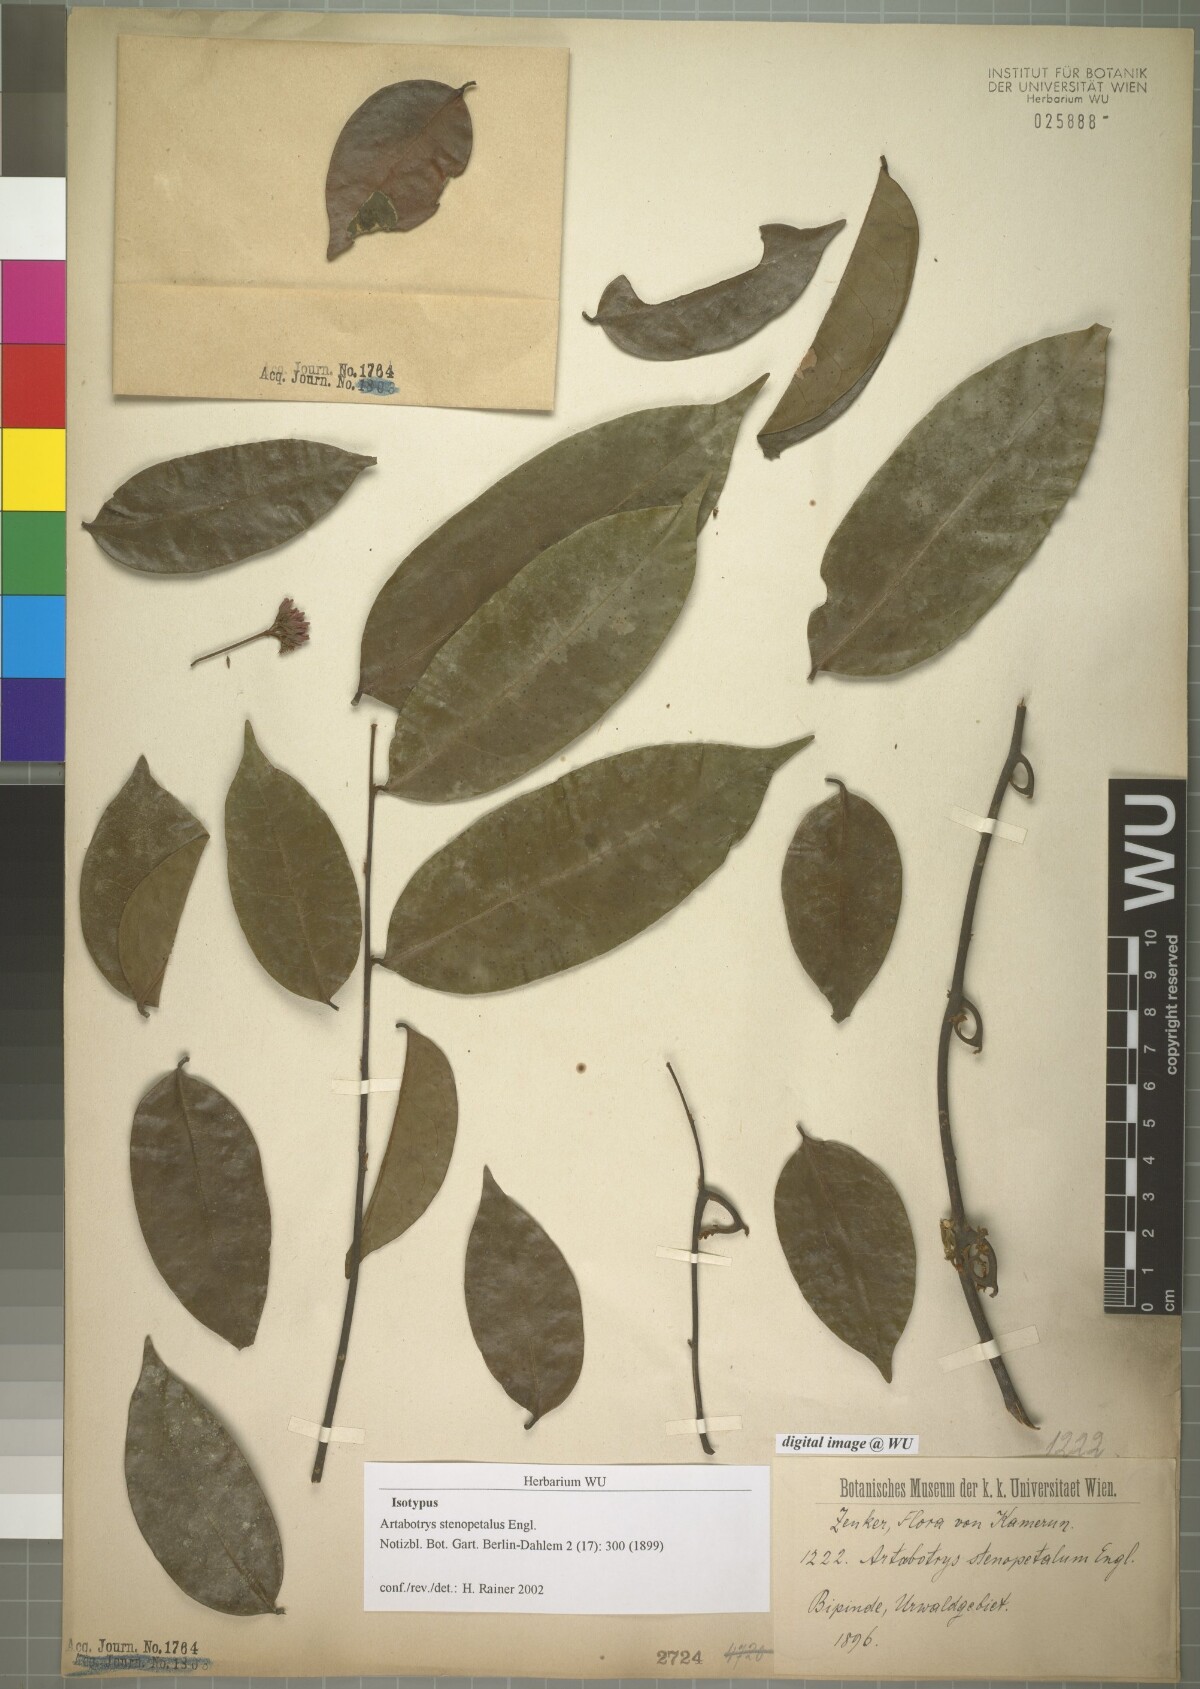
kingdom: Plantae
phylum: Tracheophyta
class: Magnoliopsida
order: Magnoliales
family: Annonaceae
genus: Artabotrys
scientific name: Artabotrys stenopetalus
